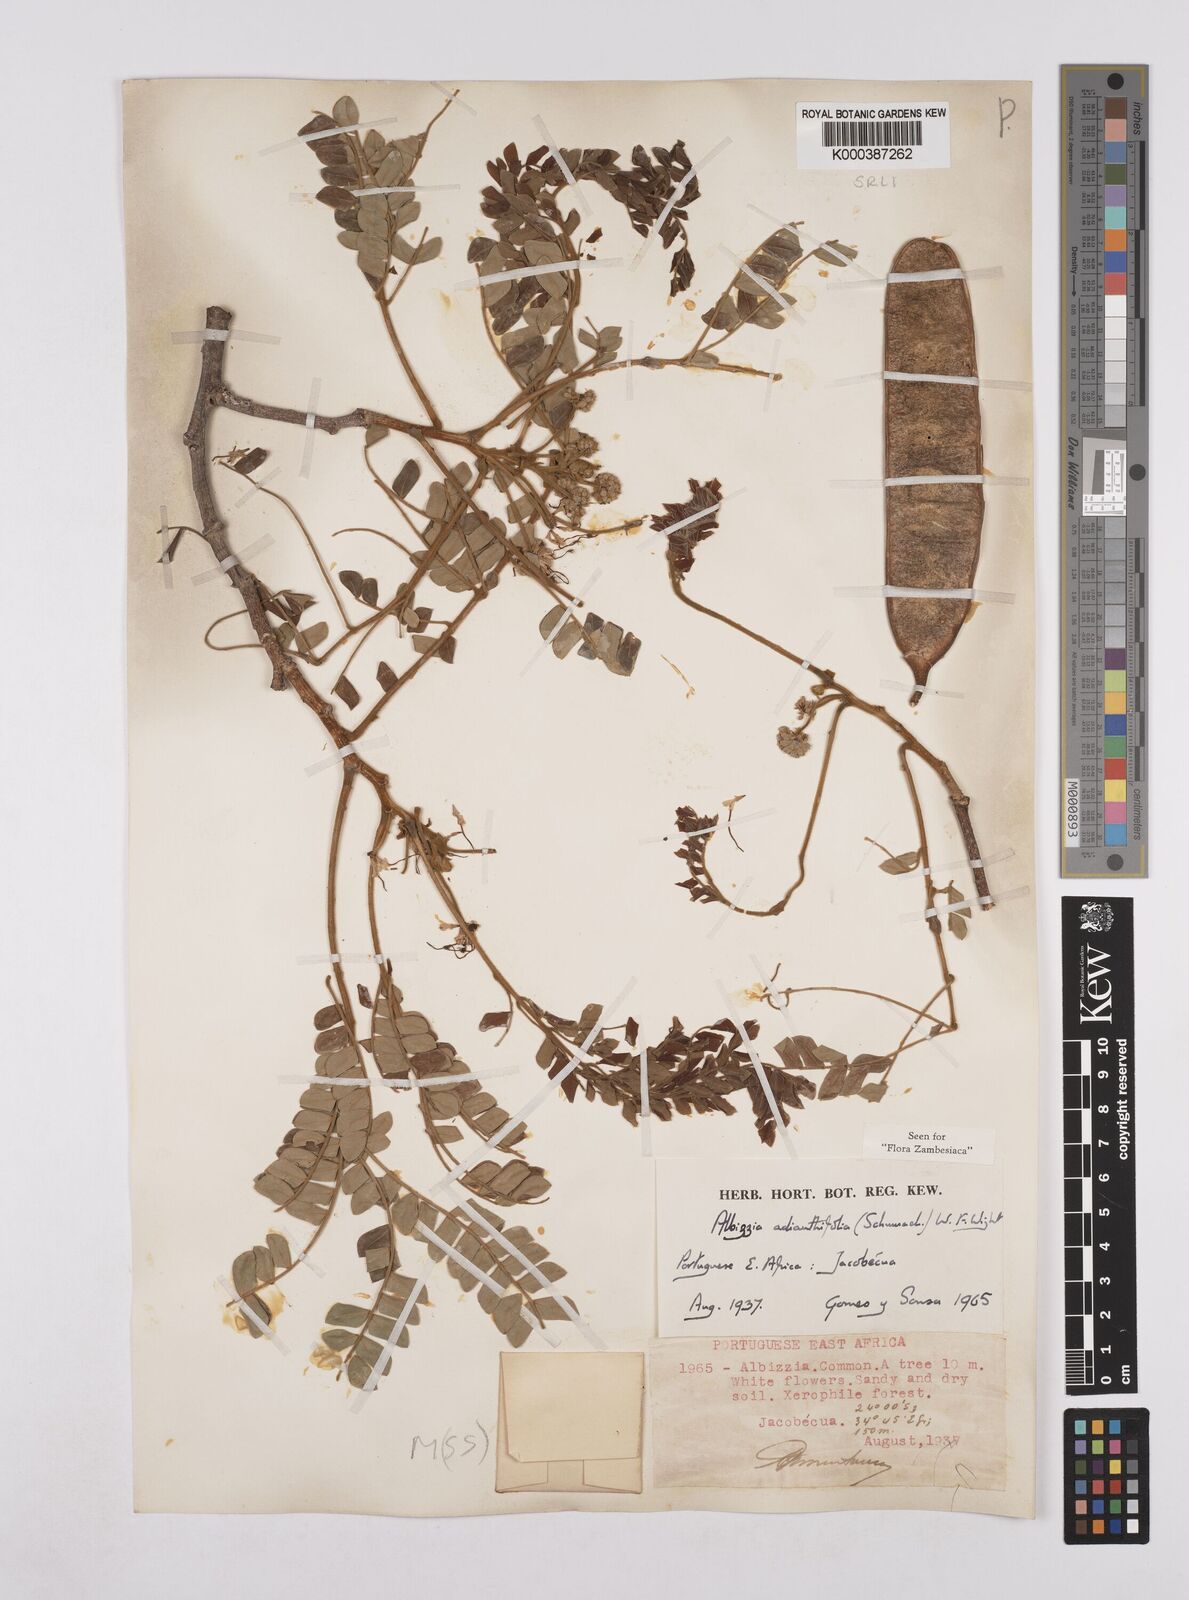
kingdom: Plantae
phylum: Tracheophyta
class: Magnoliopsida
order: Fabales
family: Fabaceae
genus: Albizia
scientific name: Albizia adianthifolia
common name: West african albizia
